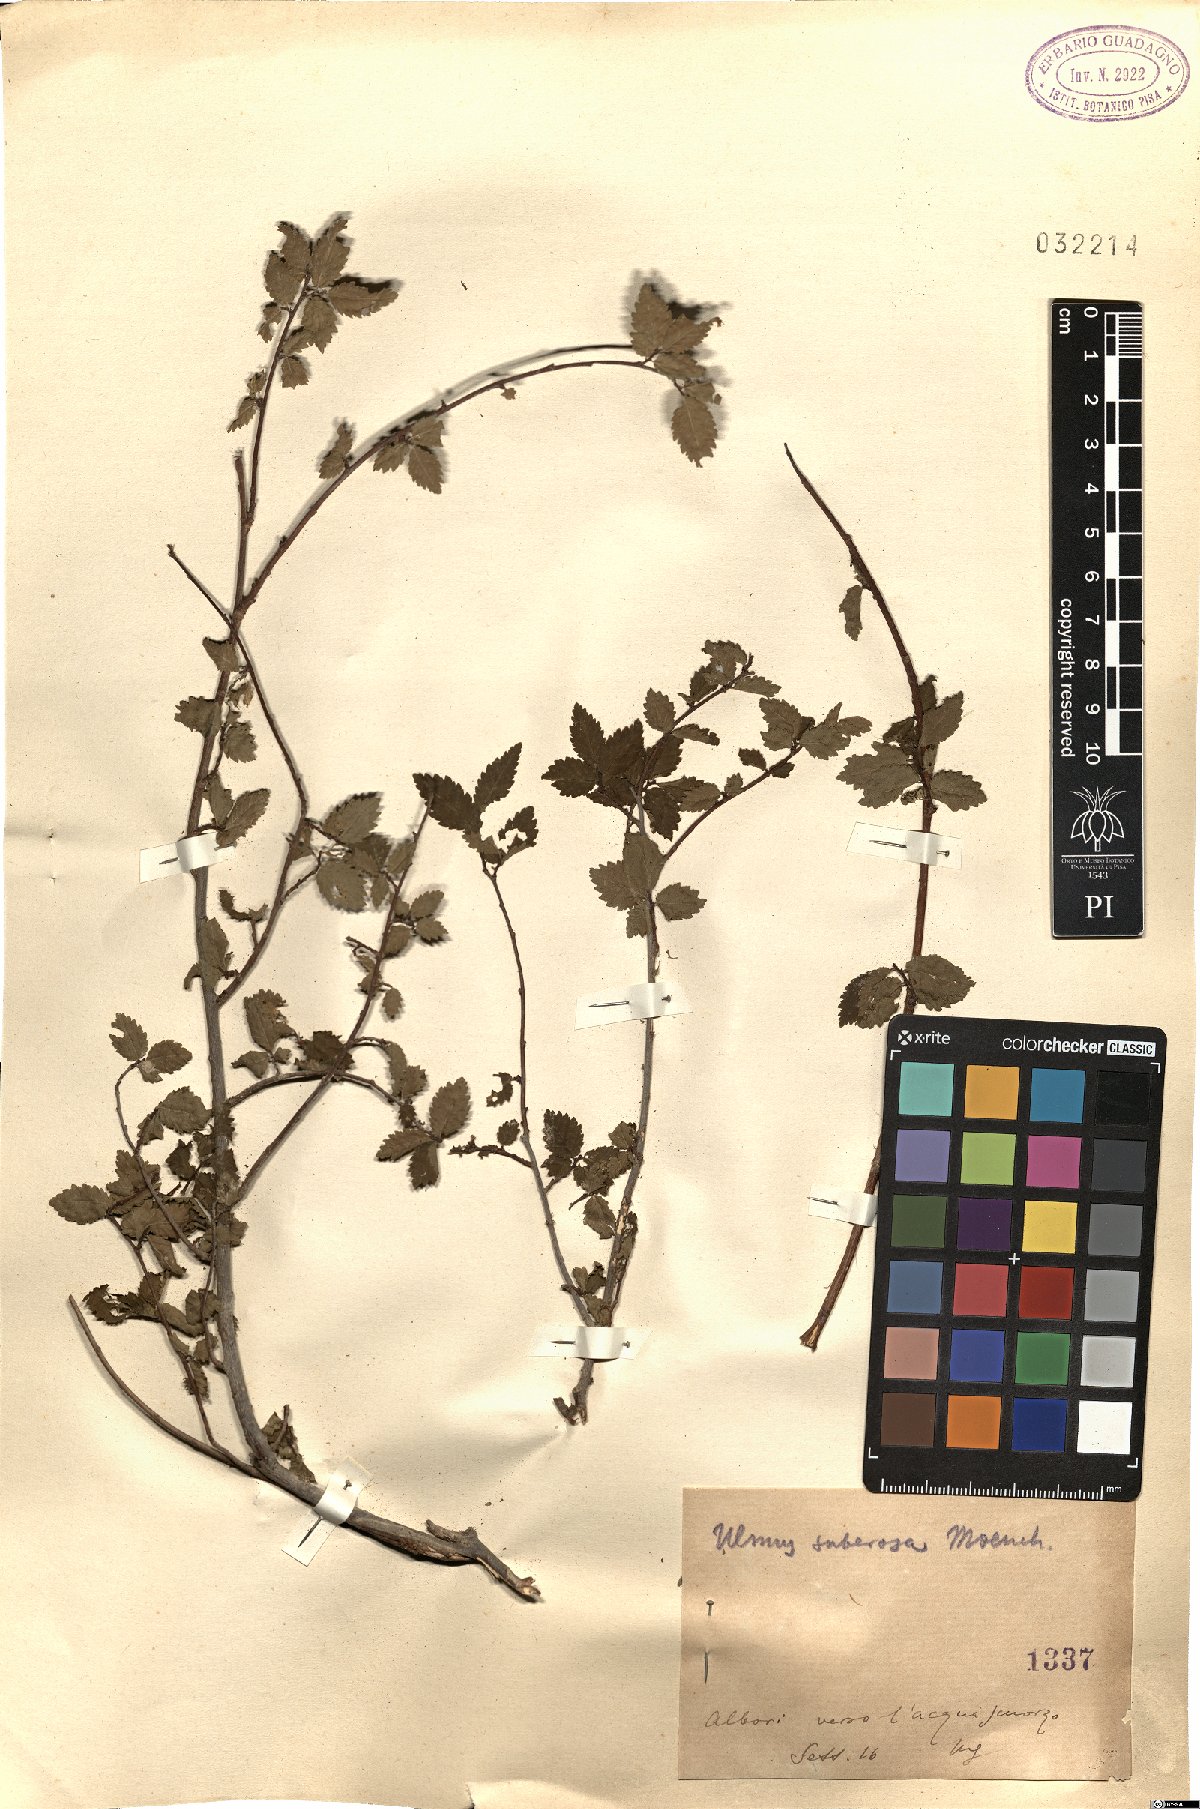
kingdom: Plantae
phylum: Tracheophyta
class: Magnoliopsida
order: Rosales
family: Ulmaceae
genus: Ulmus
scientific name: Ulmus minor
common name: Small-leaved elm
